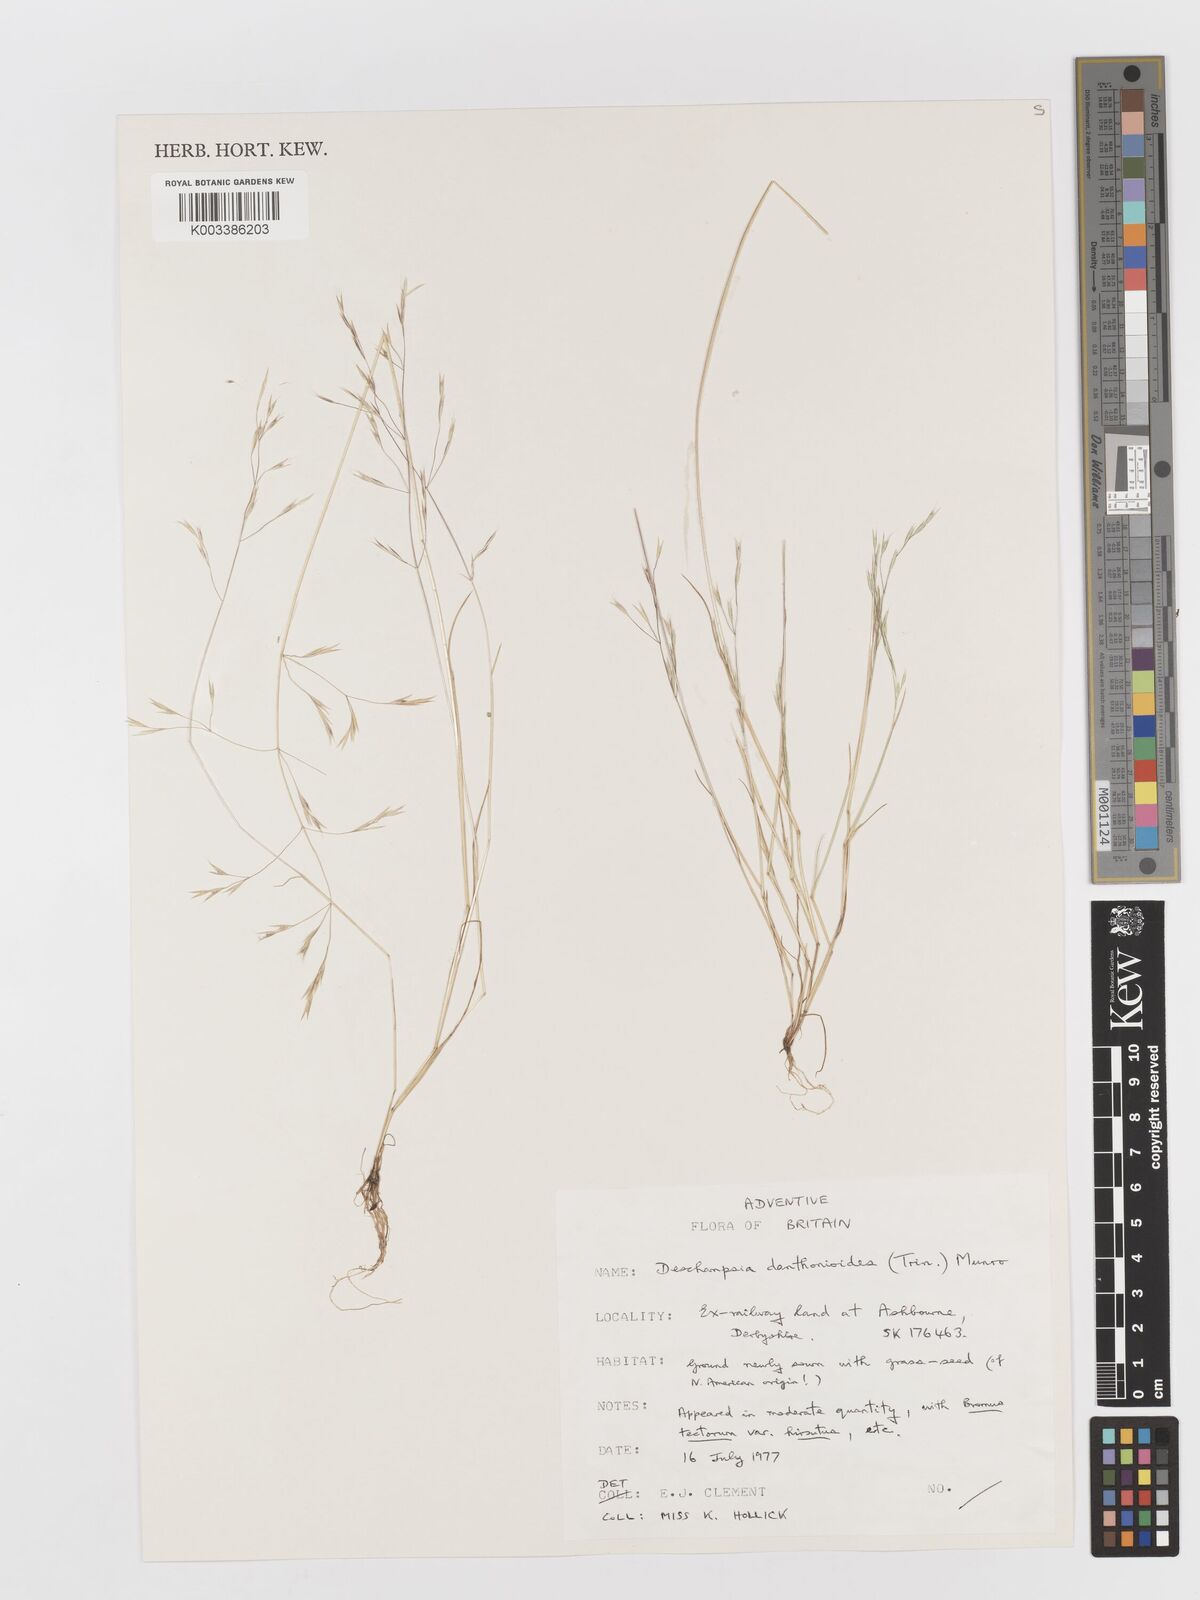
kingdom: Plantae
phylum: Tracheophyta
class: Liliopsida
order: Poales
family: Poaceae
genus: Deschampsia
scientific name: Deschampsia danthonioides
